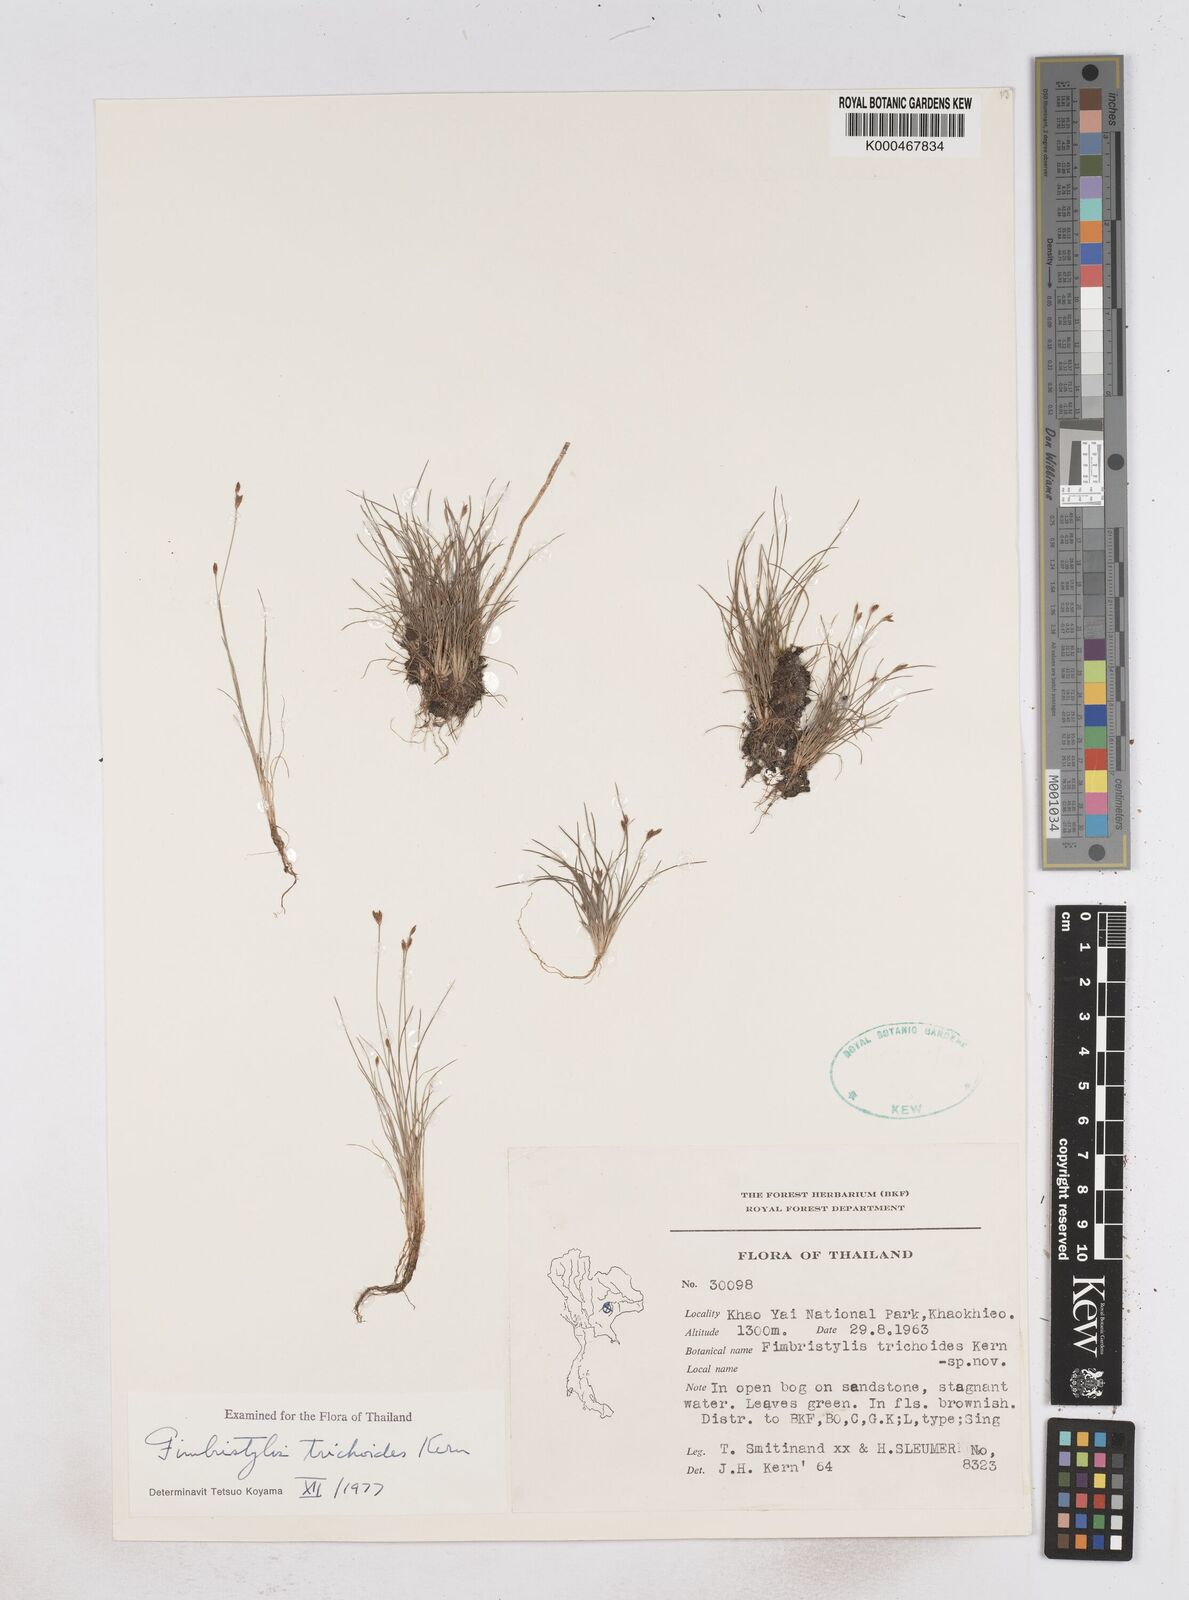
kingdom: Plantae
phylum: Tracheophyta
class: Liliopsida
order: Poales
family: Cyperaceae
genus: Fimbristylis
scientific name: Fimbristylis trichoides
